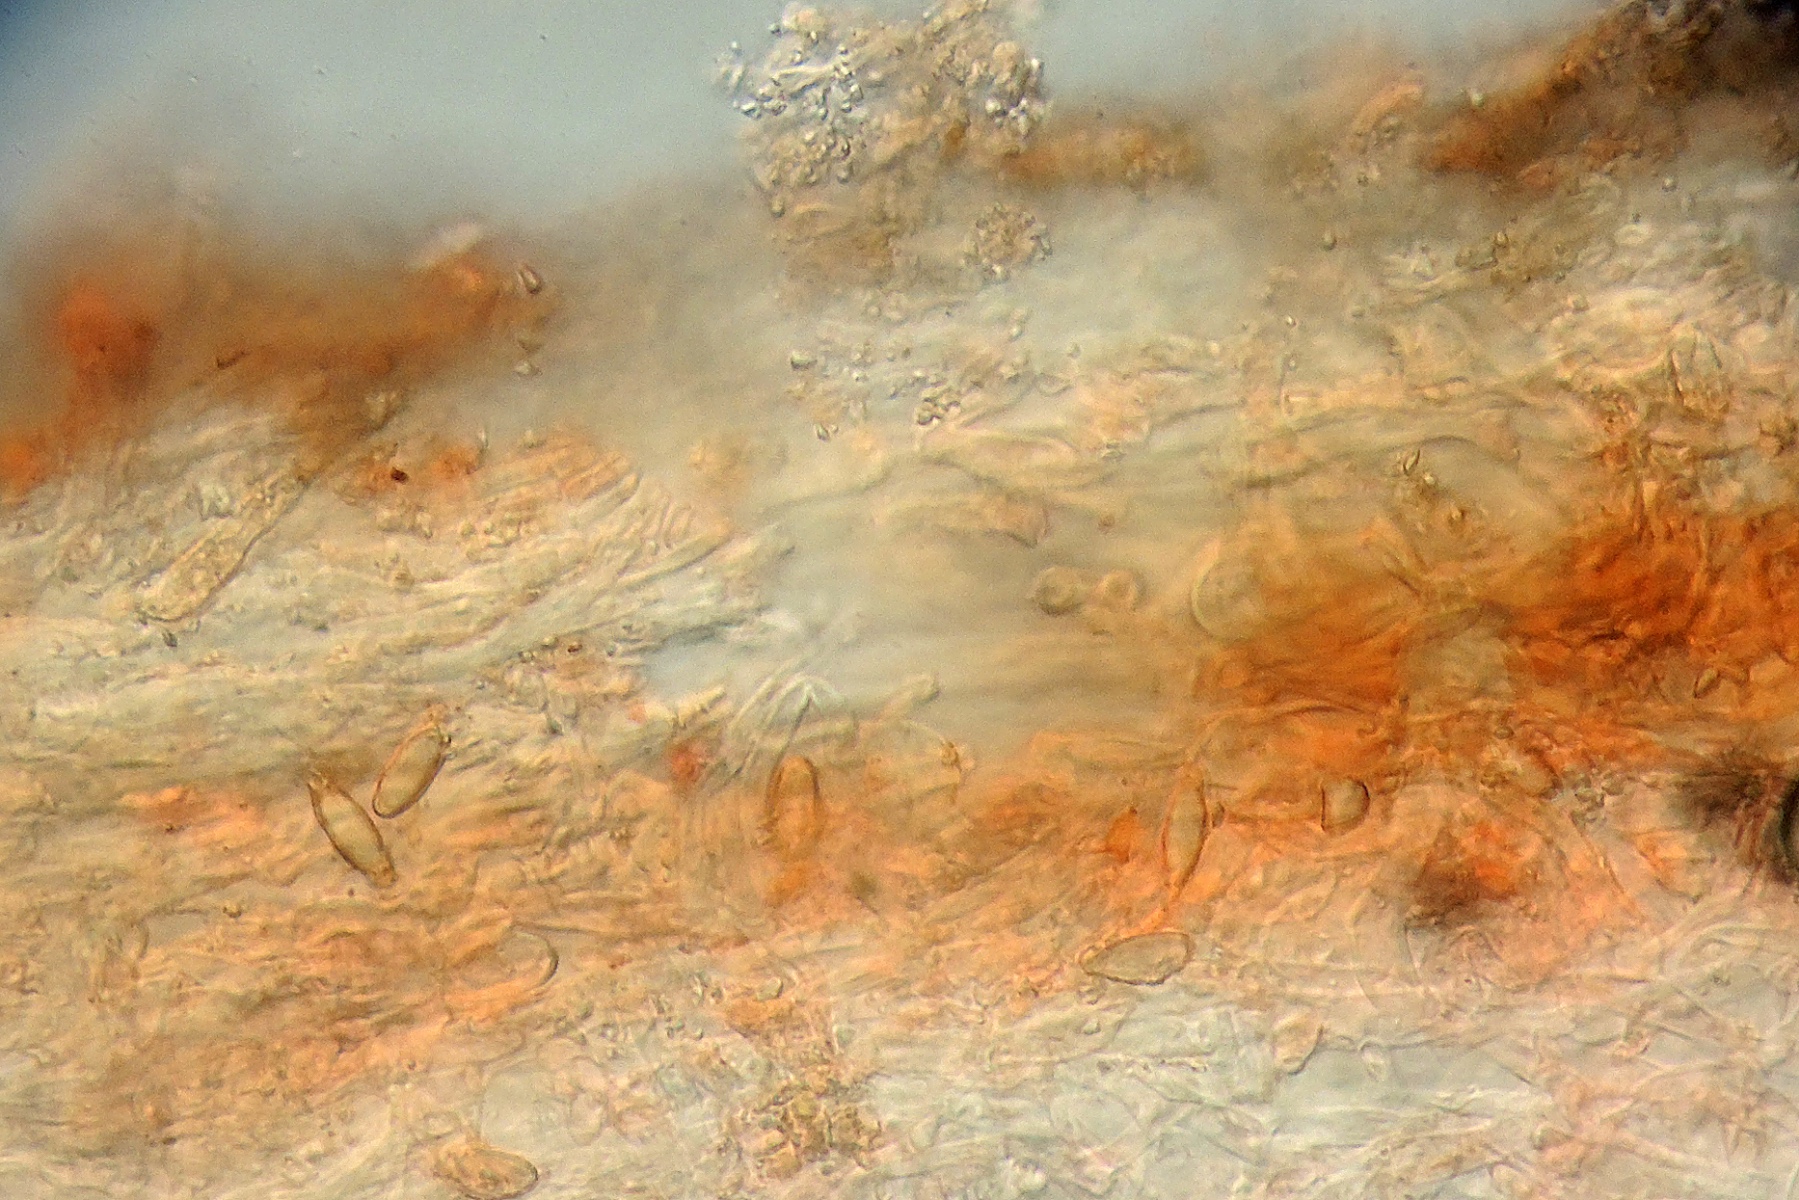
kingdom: Fungi
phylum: Basidiomycota
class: Agaricomycetes
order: Hysterangiales
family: Hysterangiaceae
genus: Statesia
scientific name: Statesia pompholyx
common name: brunkødet rodtrøffel
